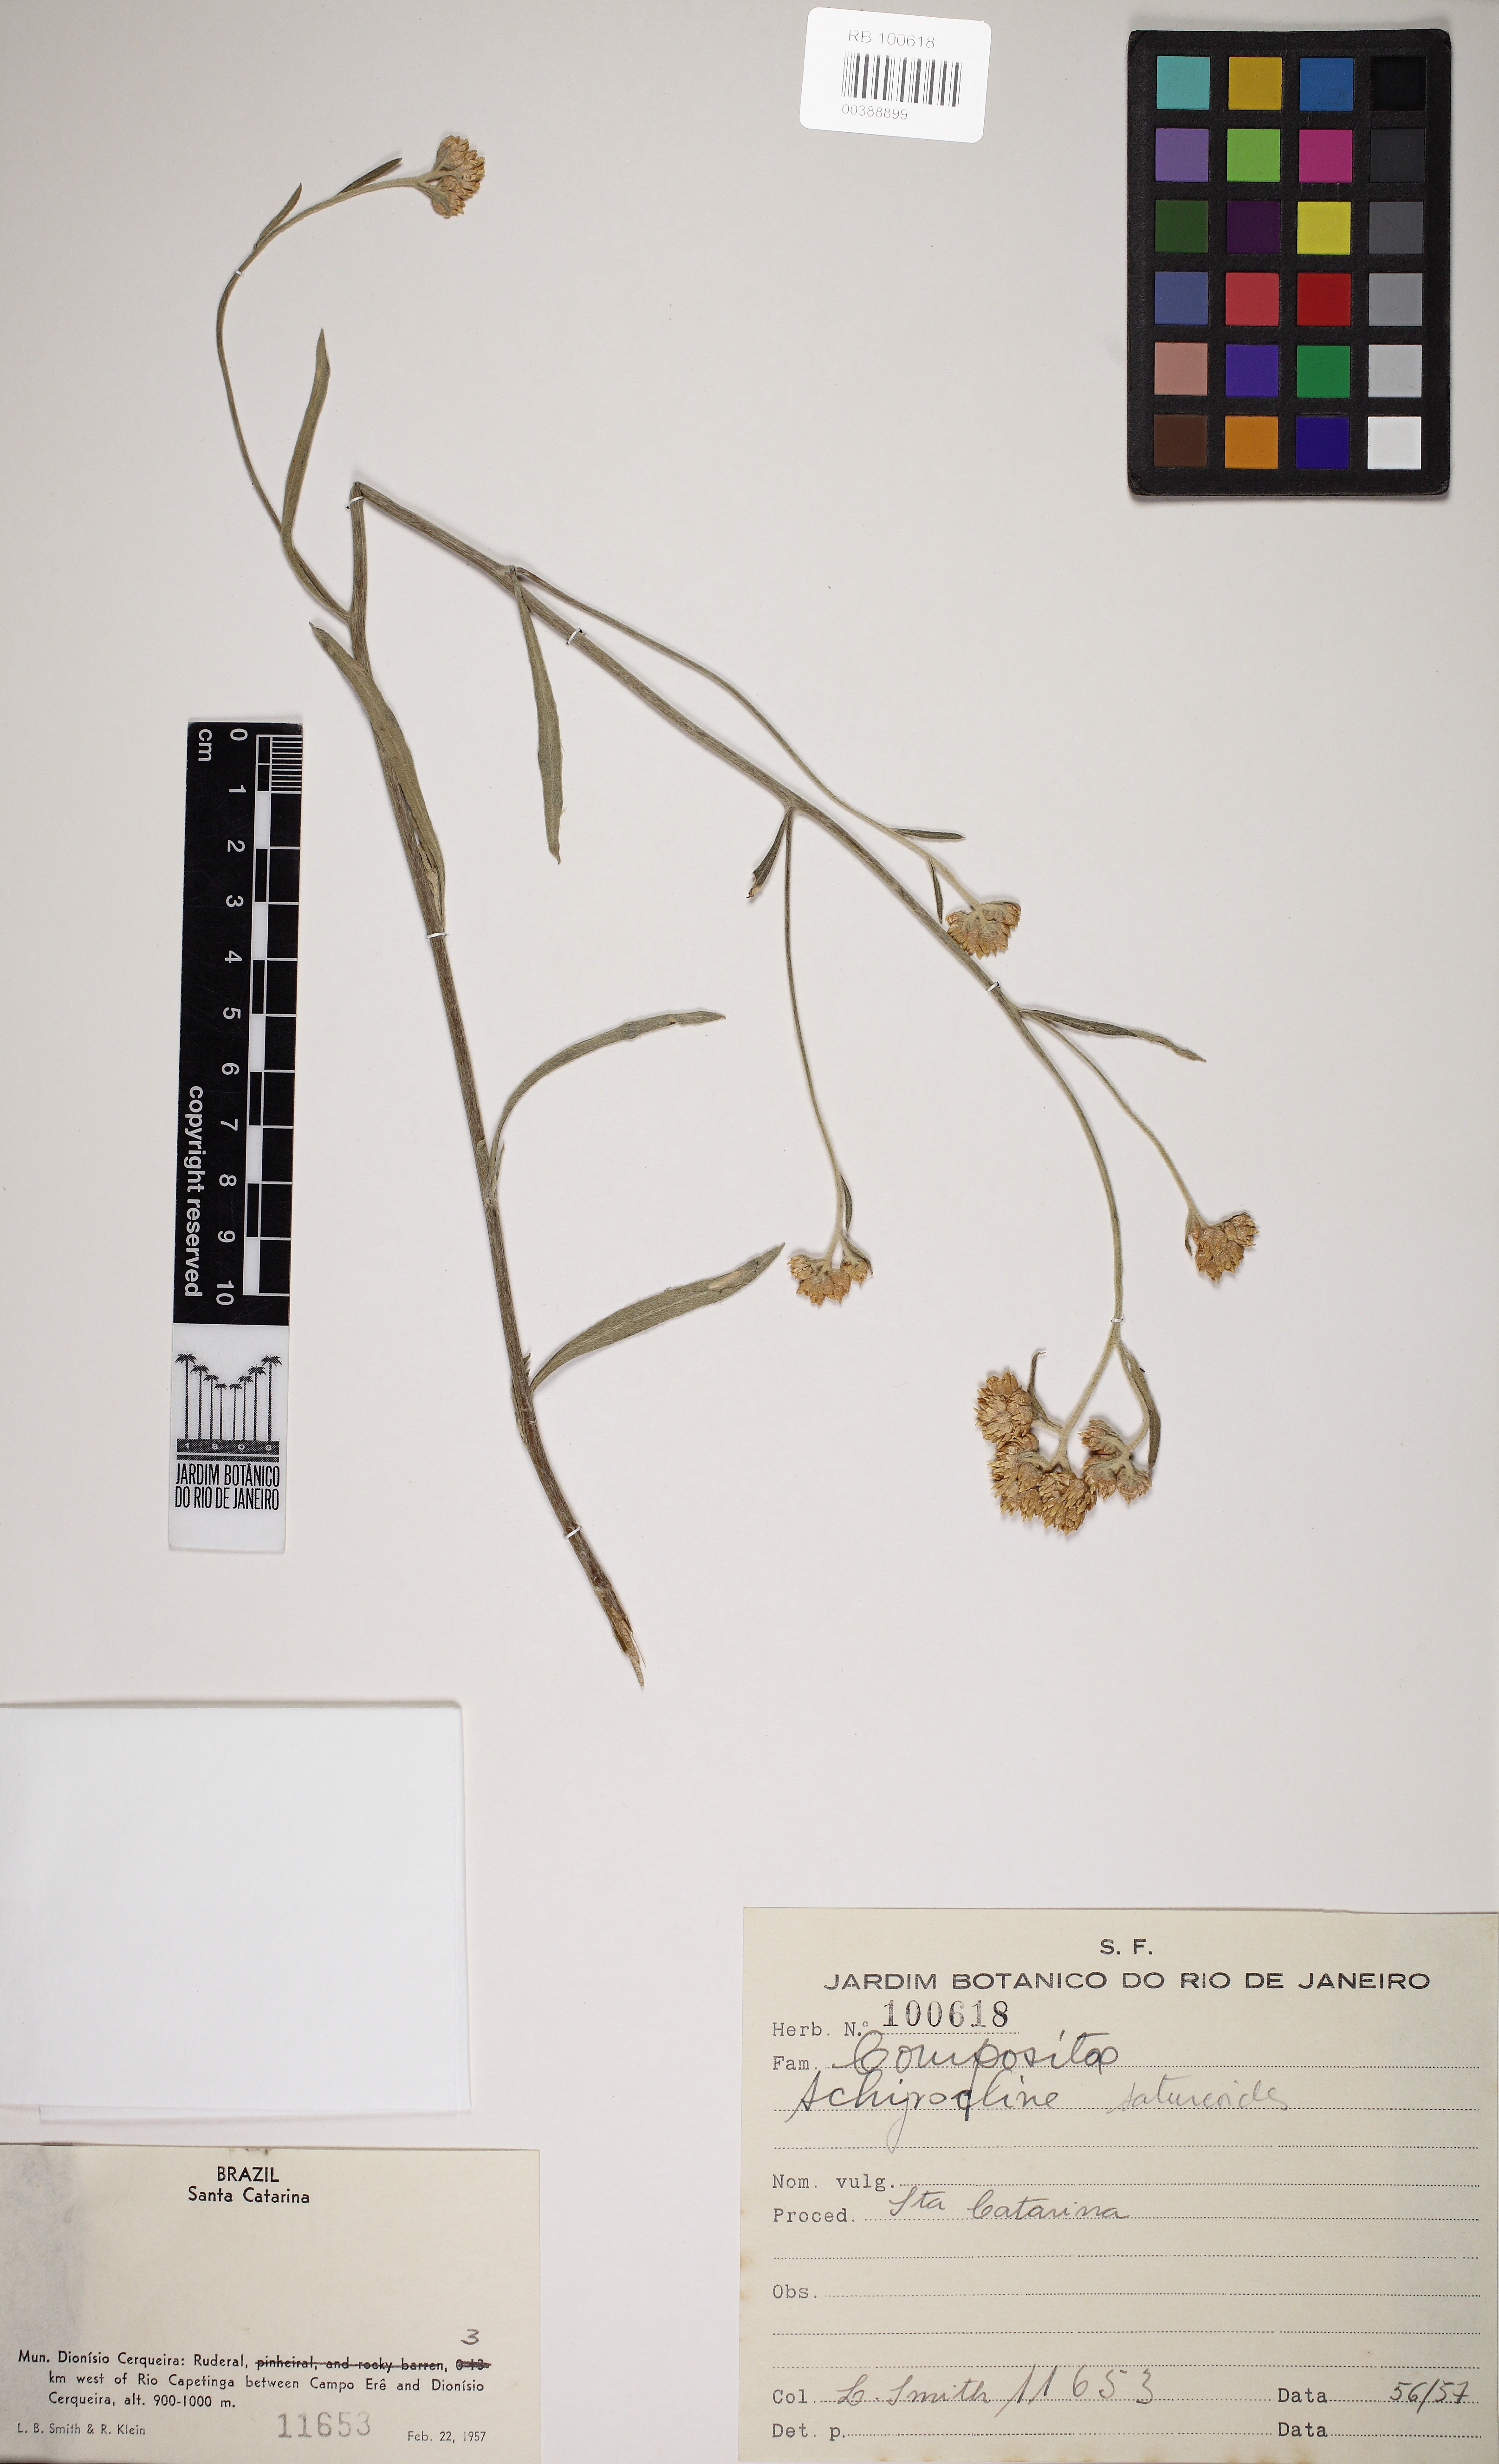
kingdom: Plantae
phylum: Tracheophyta
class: Magnoliopsida
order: Asterales
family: Asteraceae
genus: Achyrocline
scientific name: Achyrocline satureioides
